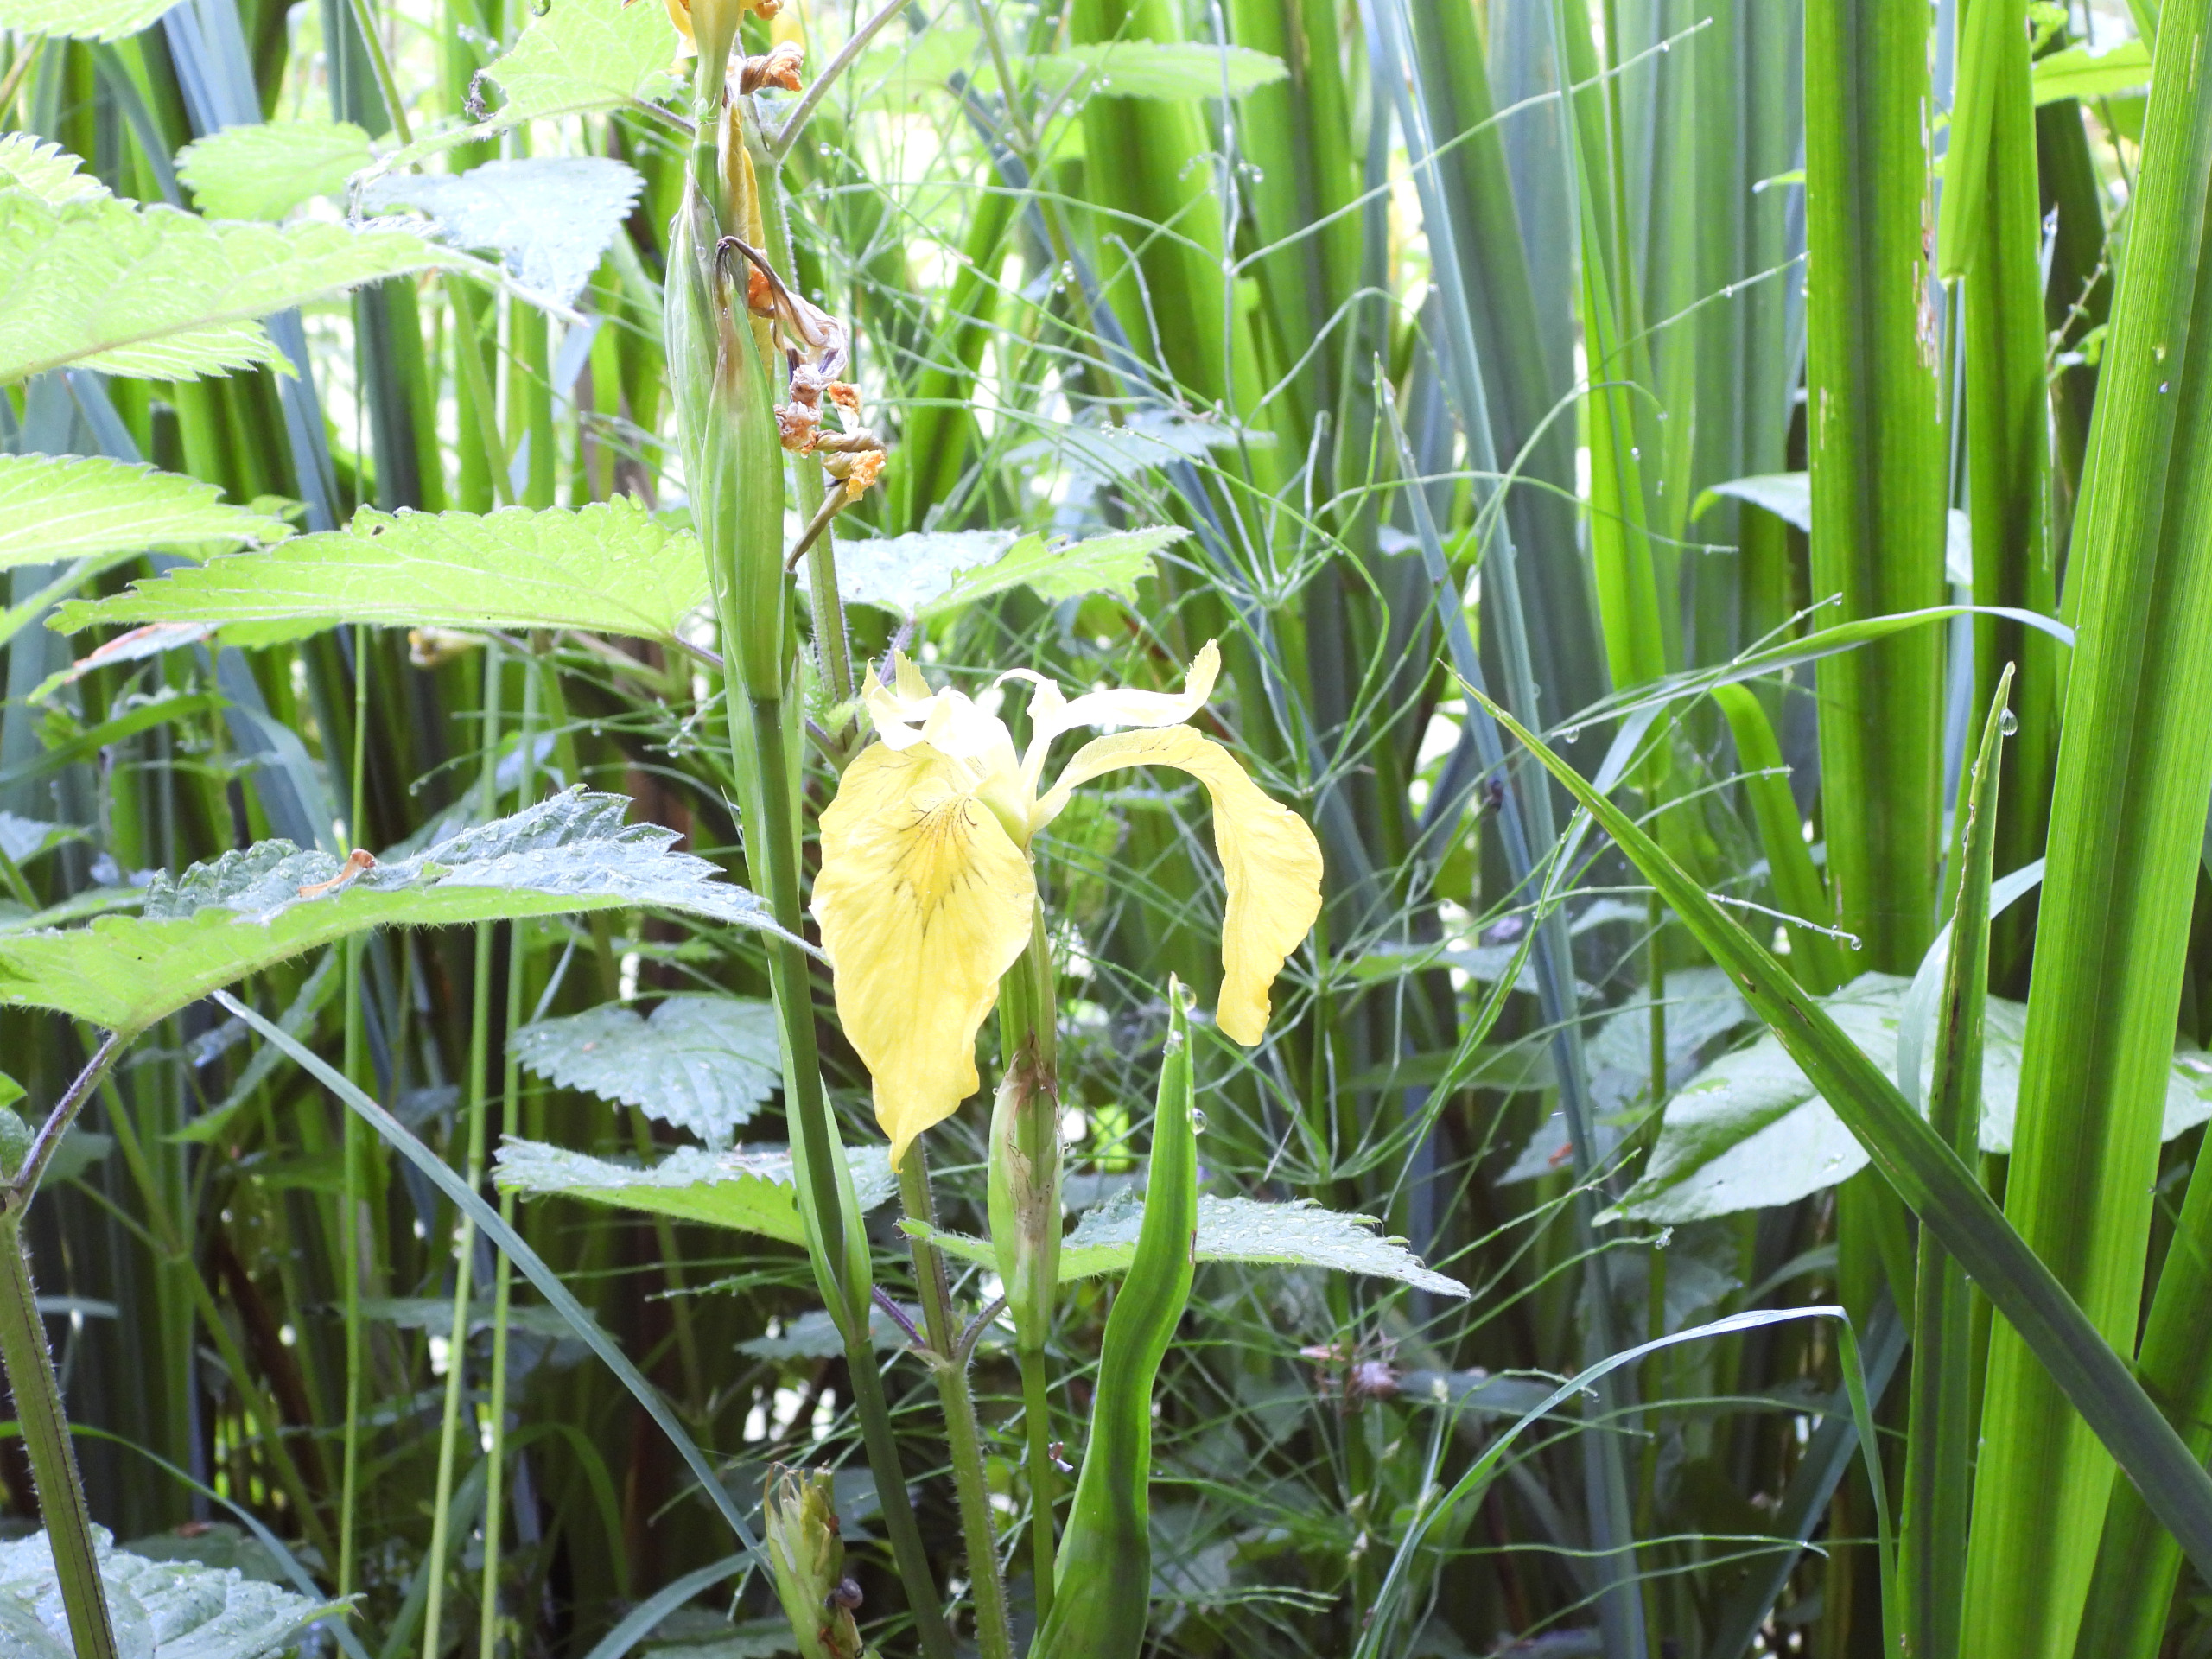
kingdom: Plantae
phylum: Tracheophyta
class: Liliopsida
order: Asparagales
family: Iridaceae
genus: Iris
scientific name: Iris pseudacorus
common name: Gul iris
